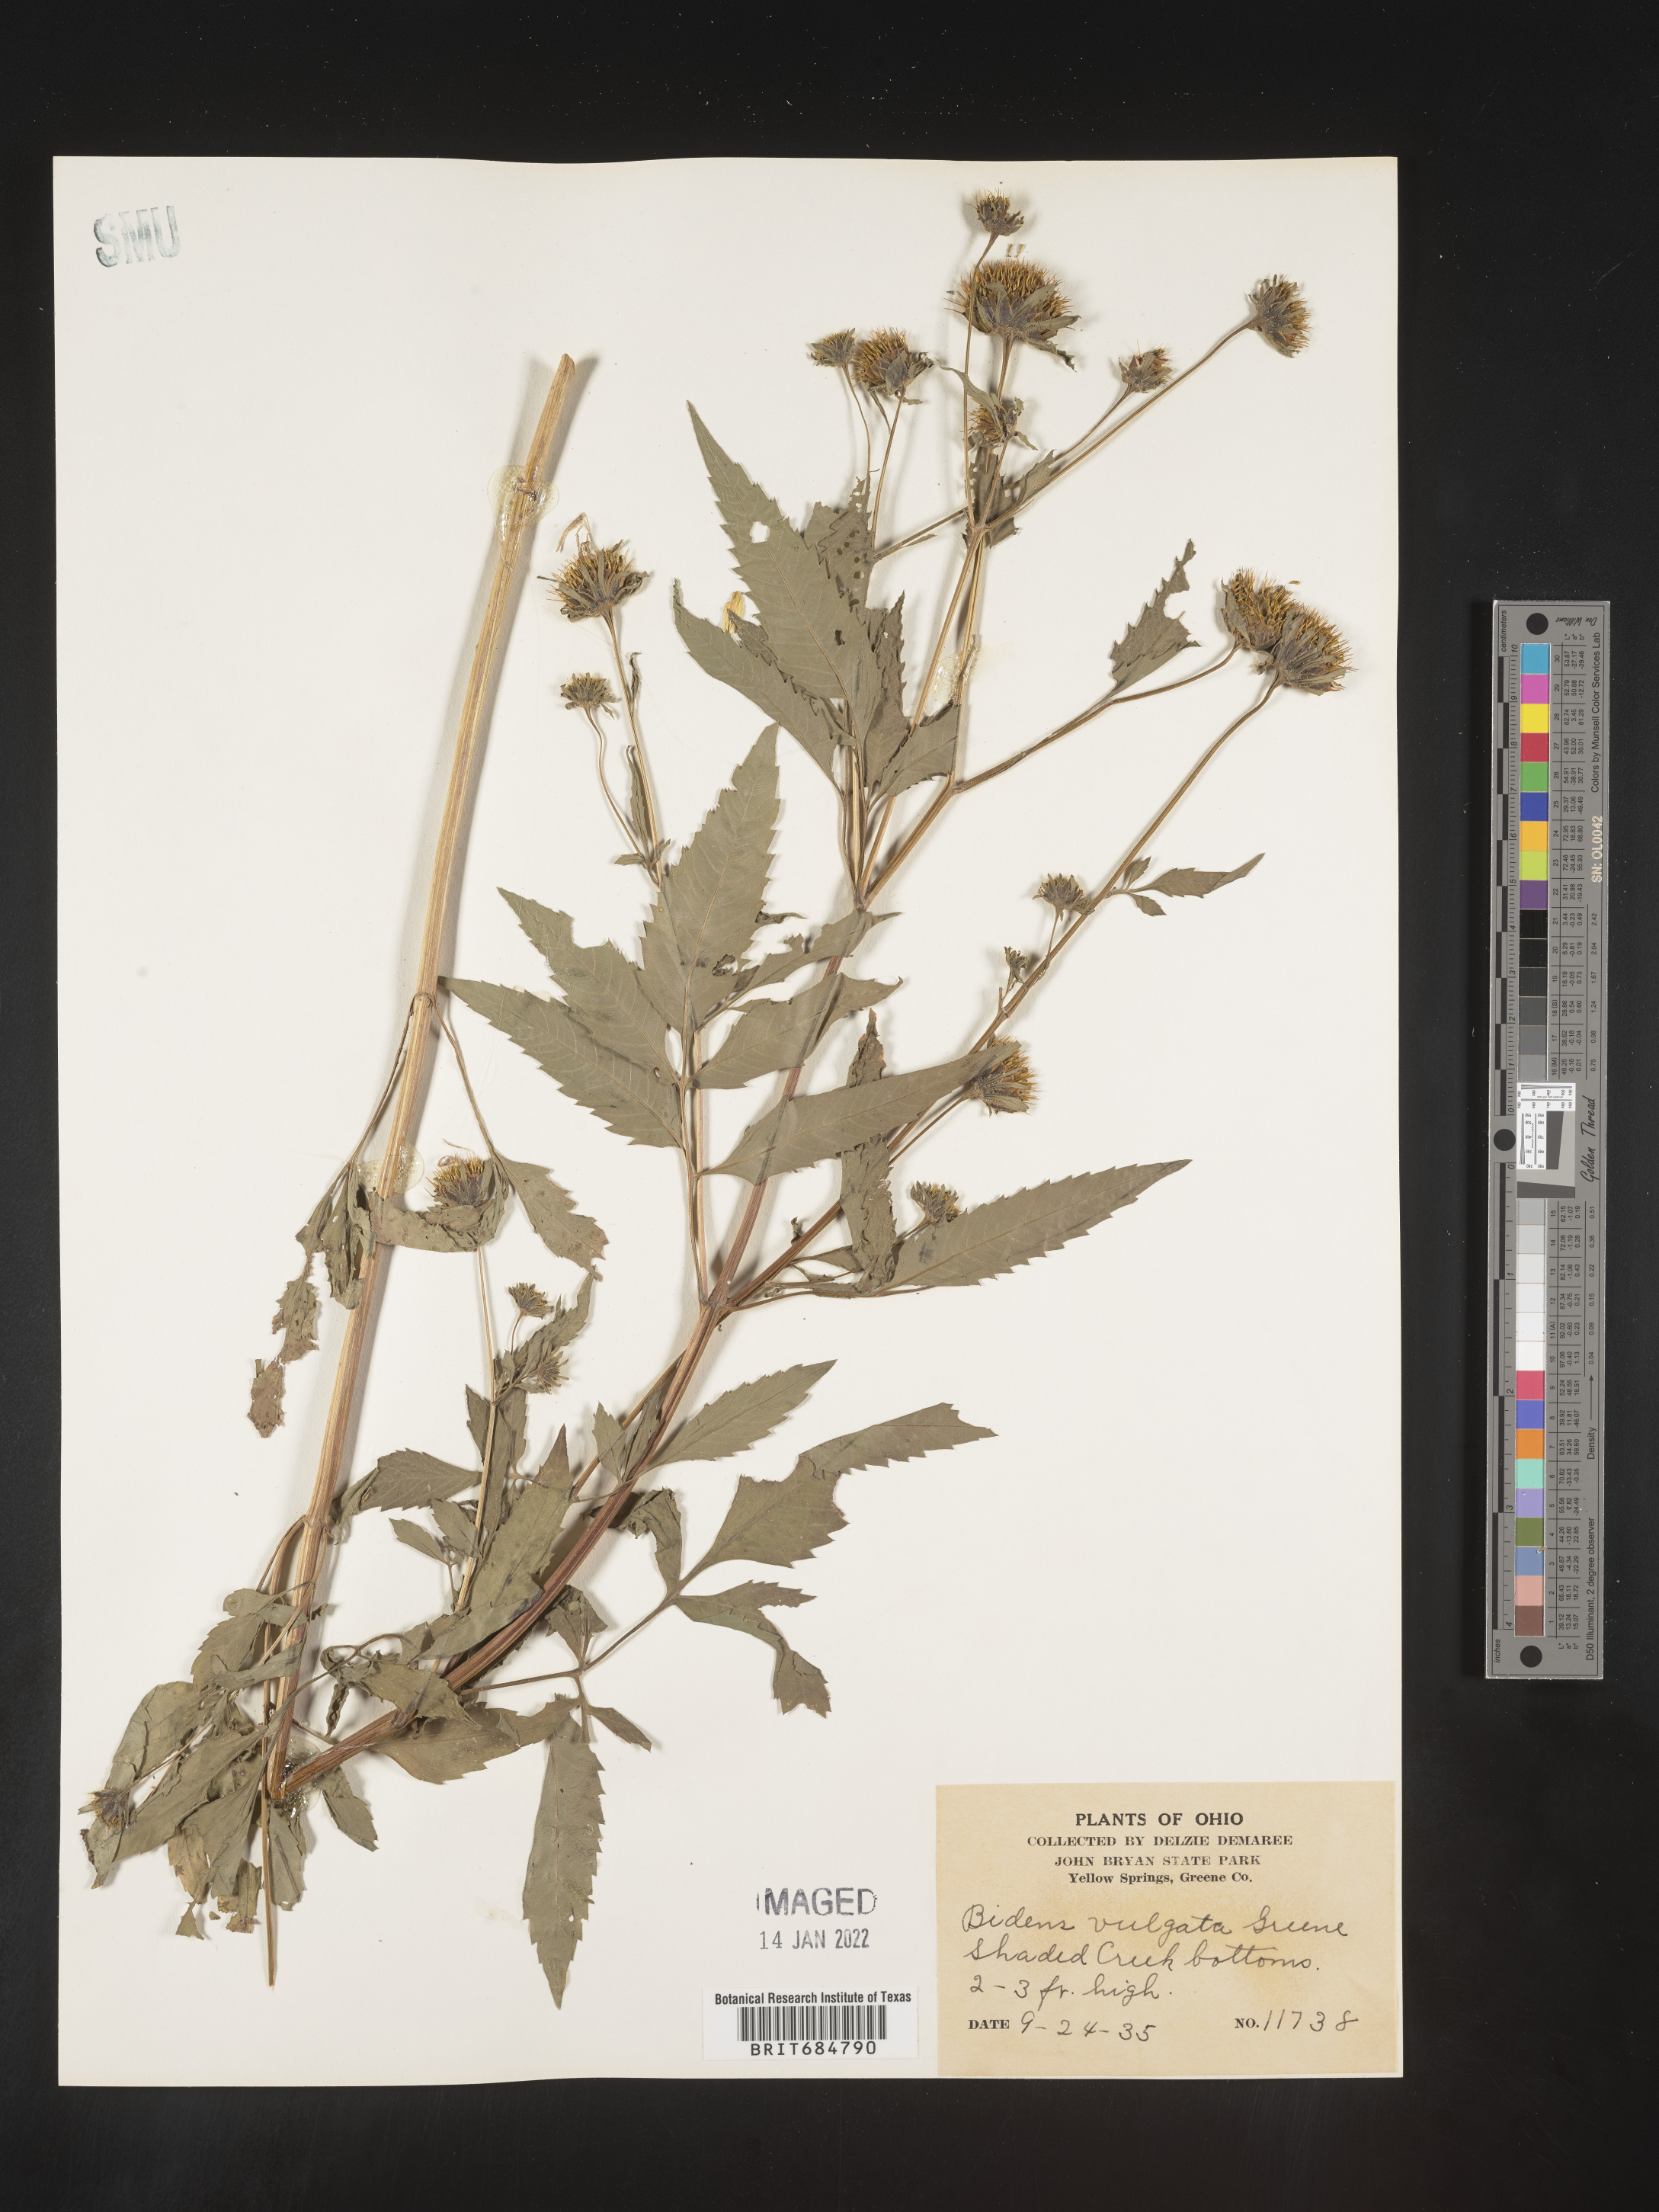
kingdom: Plantae
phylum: Tracheophyta
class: Magnoliopsida
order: Asterales
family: Asteraceae
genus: Bidens
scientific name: Bidens vulgata
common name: Tall beggarticks
